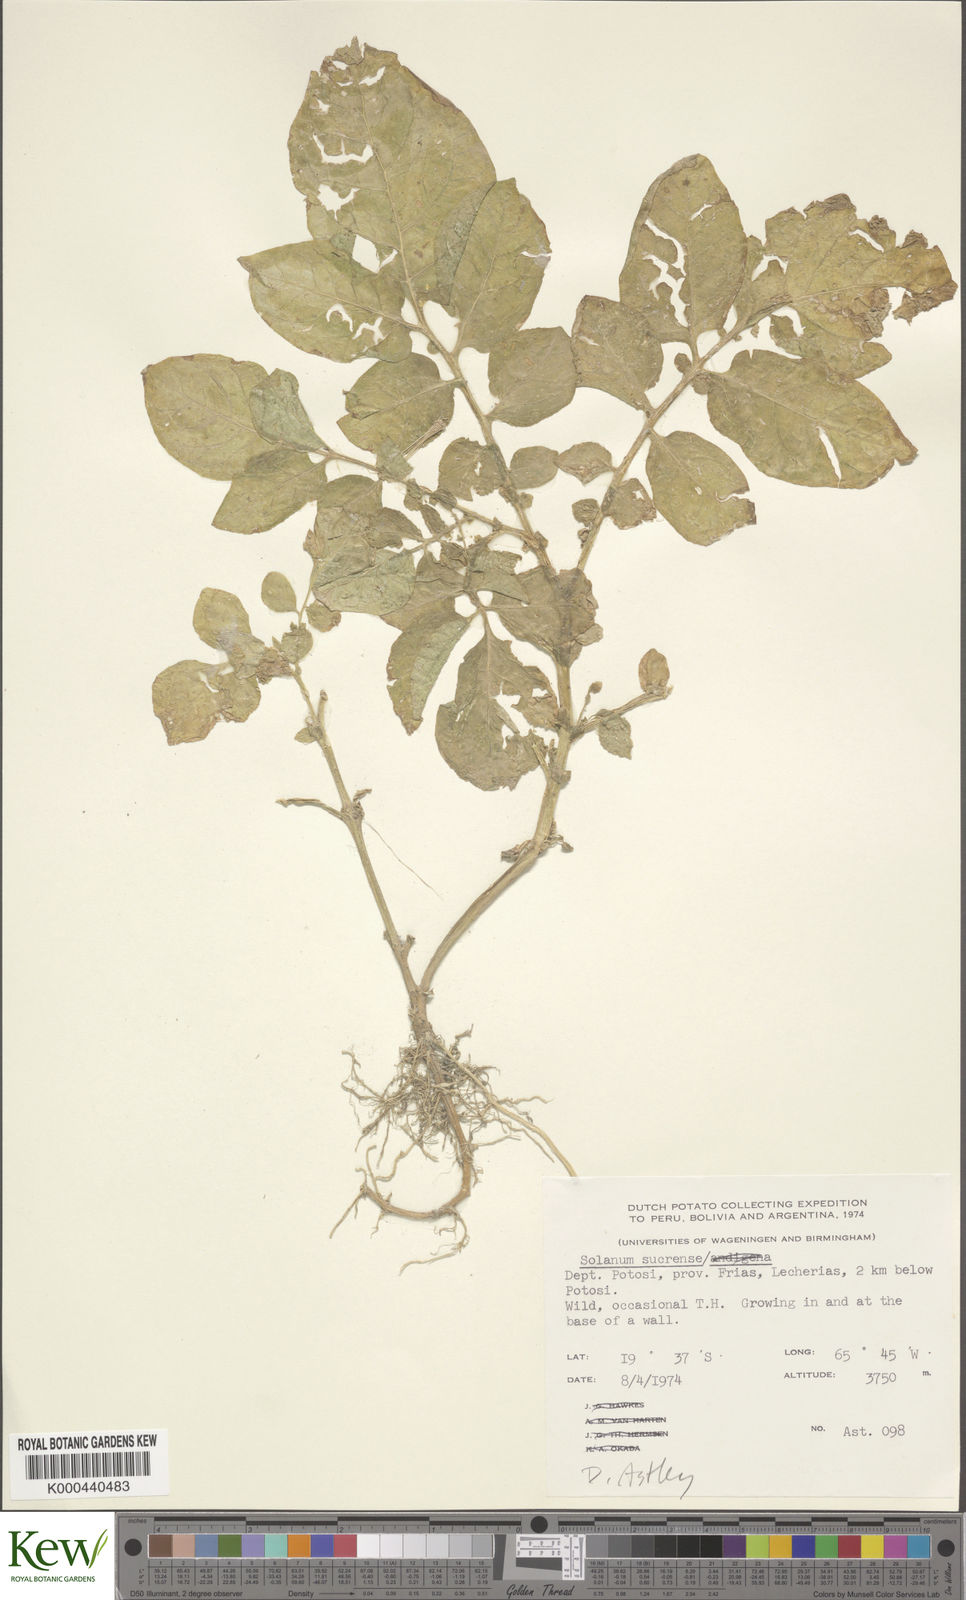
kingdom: Plantae
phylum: Tracheophyta
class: Magnoliopsida
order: Solanales
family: Solanaceae
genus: Solanum
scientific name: Solanum brevicaule
